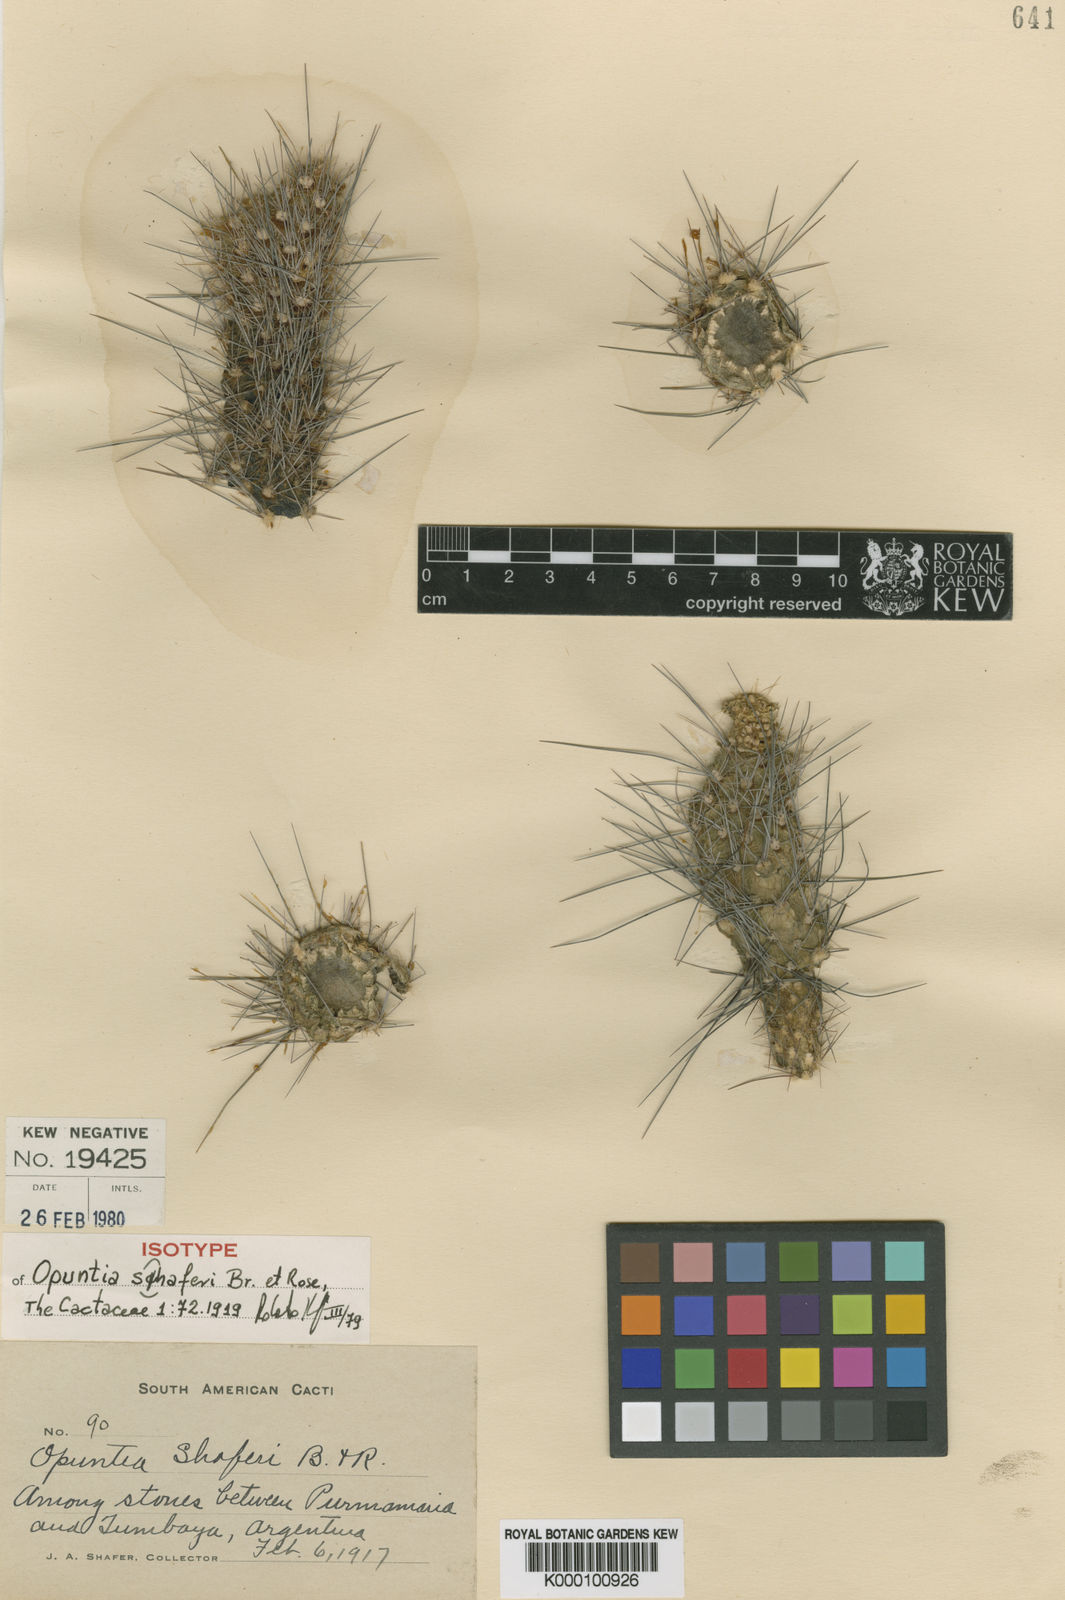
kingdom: Plantae
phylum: Tracheophyta
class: Magnoliopsida
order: Caryophyllales
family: Cactaceae
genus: Austrocylindropuntia
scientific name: Austrocylindropuntia shaferi
